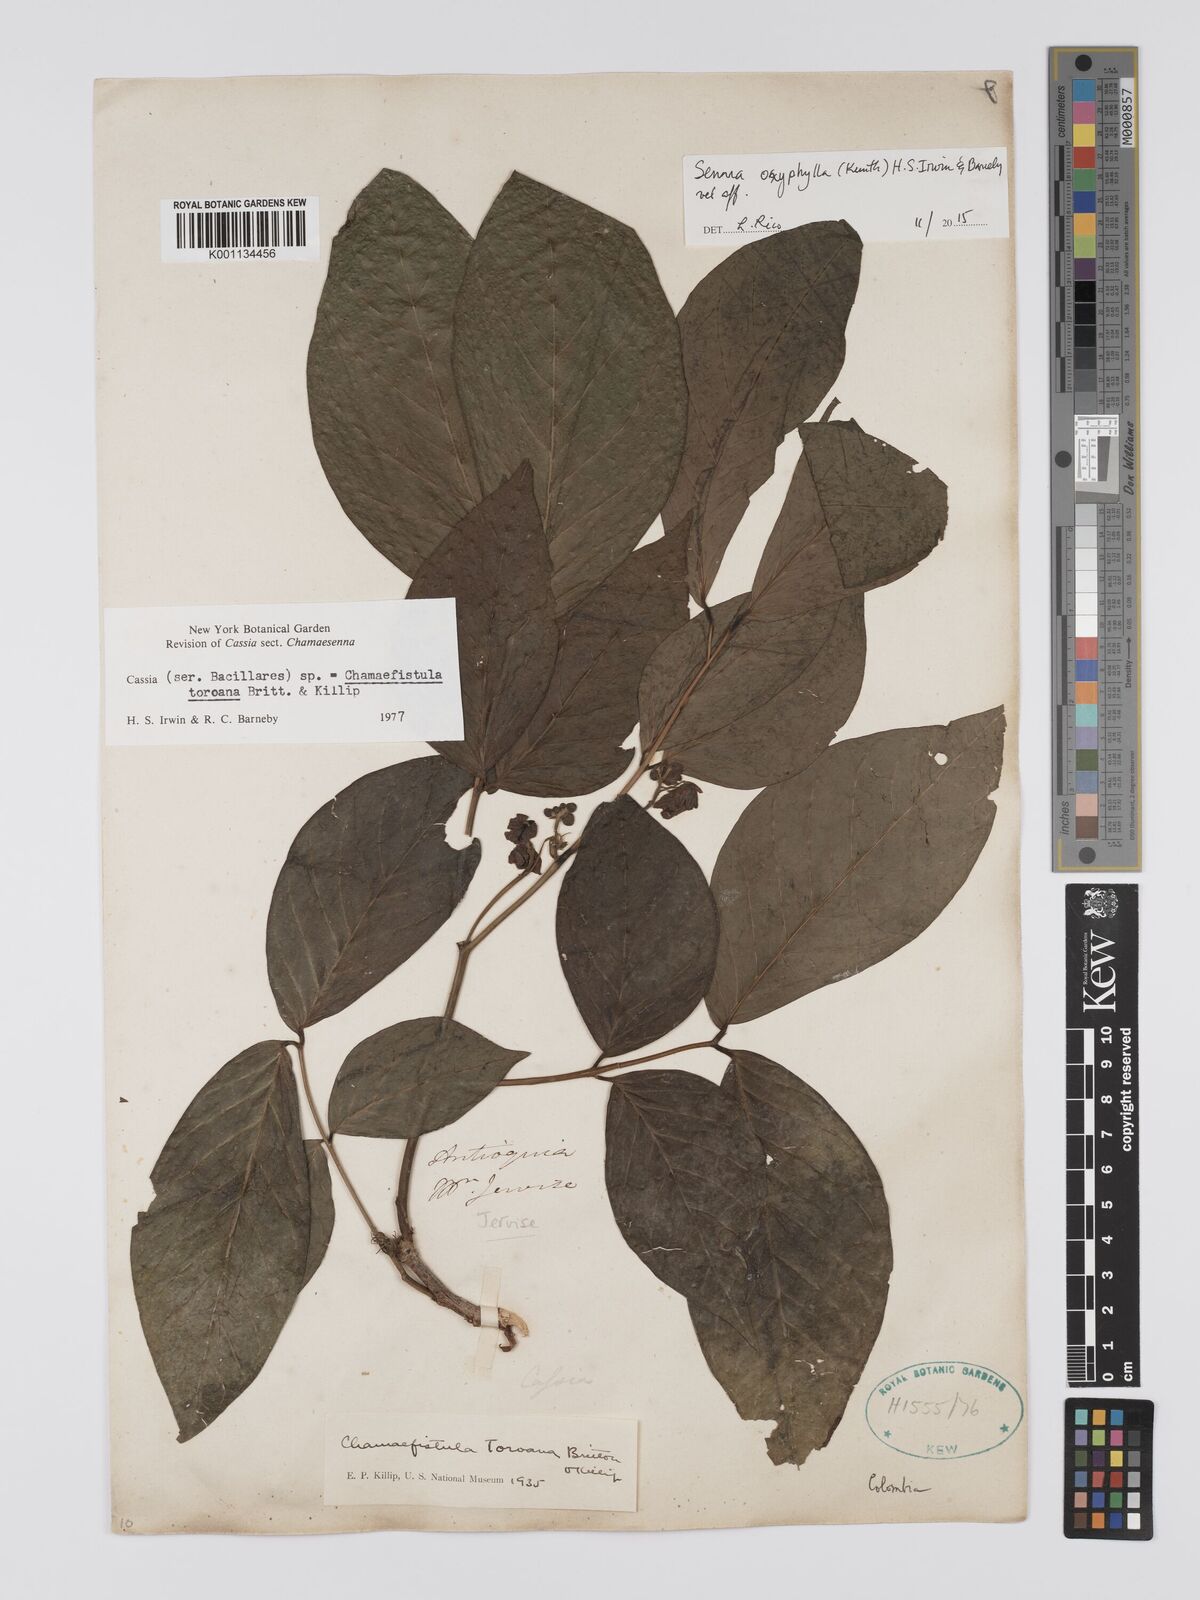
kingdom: Plantae
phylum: Tracheophyta
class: Magnoliopsida
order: Fabales
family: Fabaceae
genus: Senna
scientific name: Senna oxyphylla
